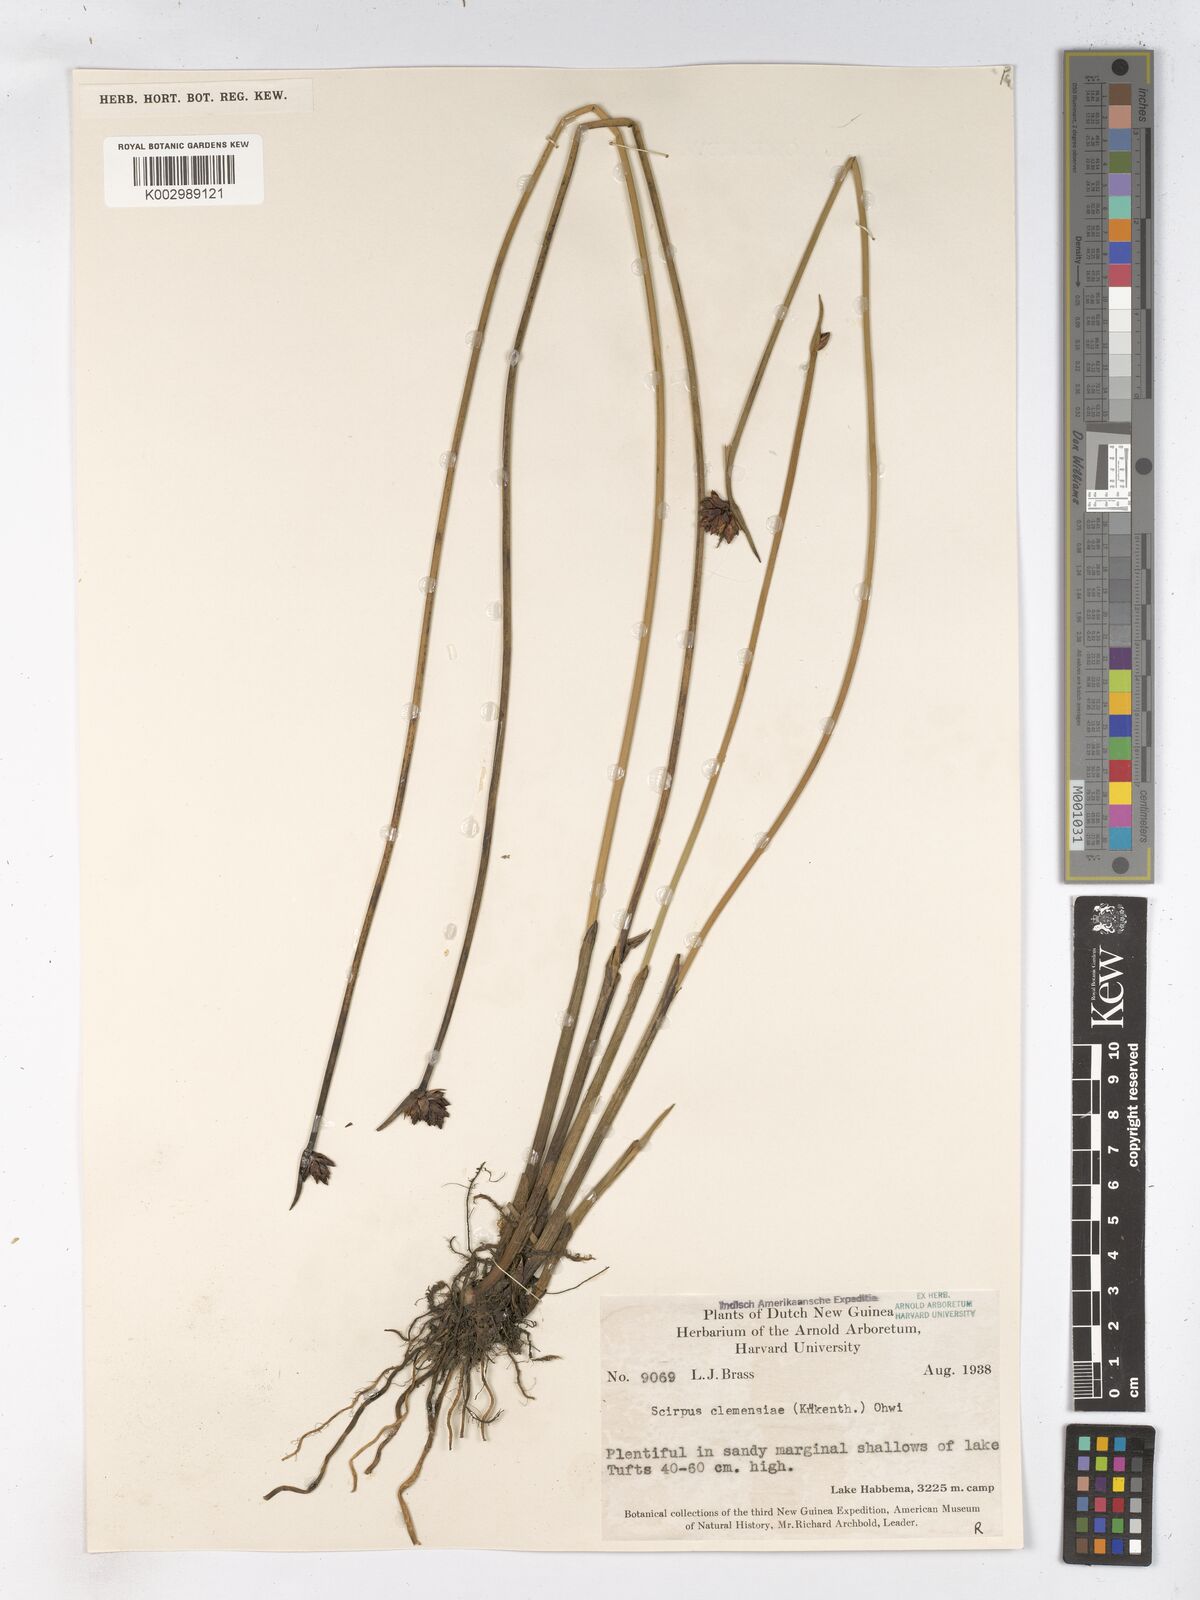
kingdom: Plantae
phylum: Tracheophyta
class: Liliopsida
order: Poales
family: Cyperaceae
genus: Schoenoplectiella
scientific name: Schoenoplectiella clemensiae
